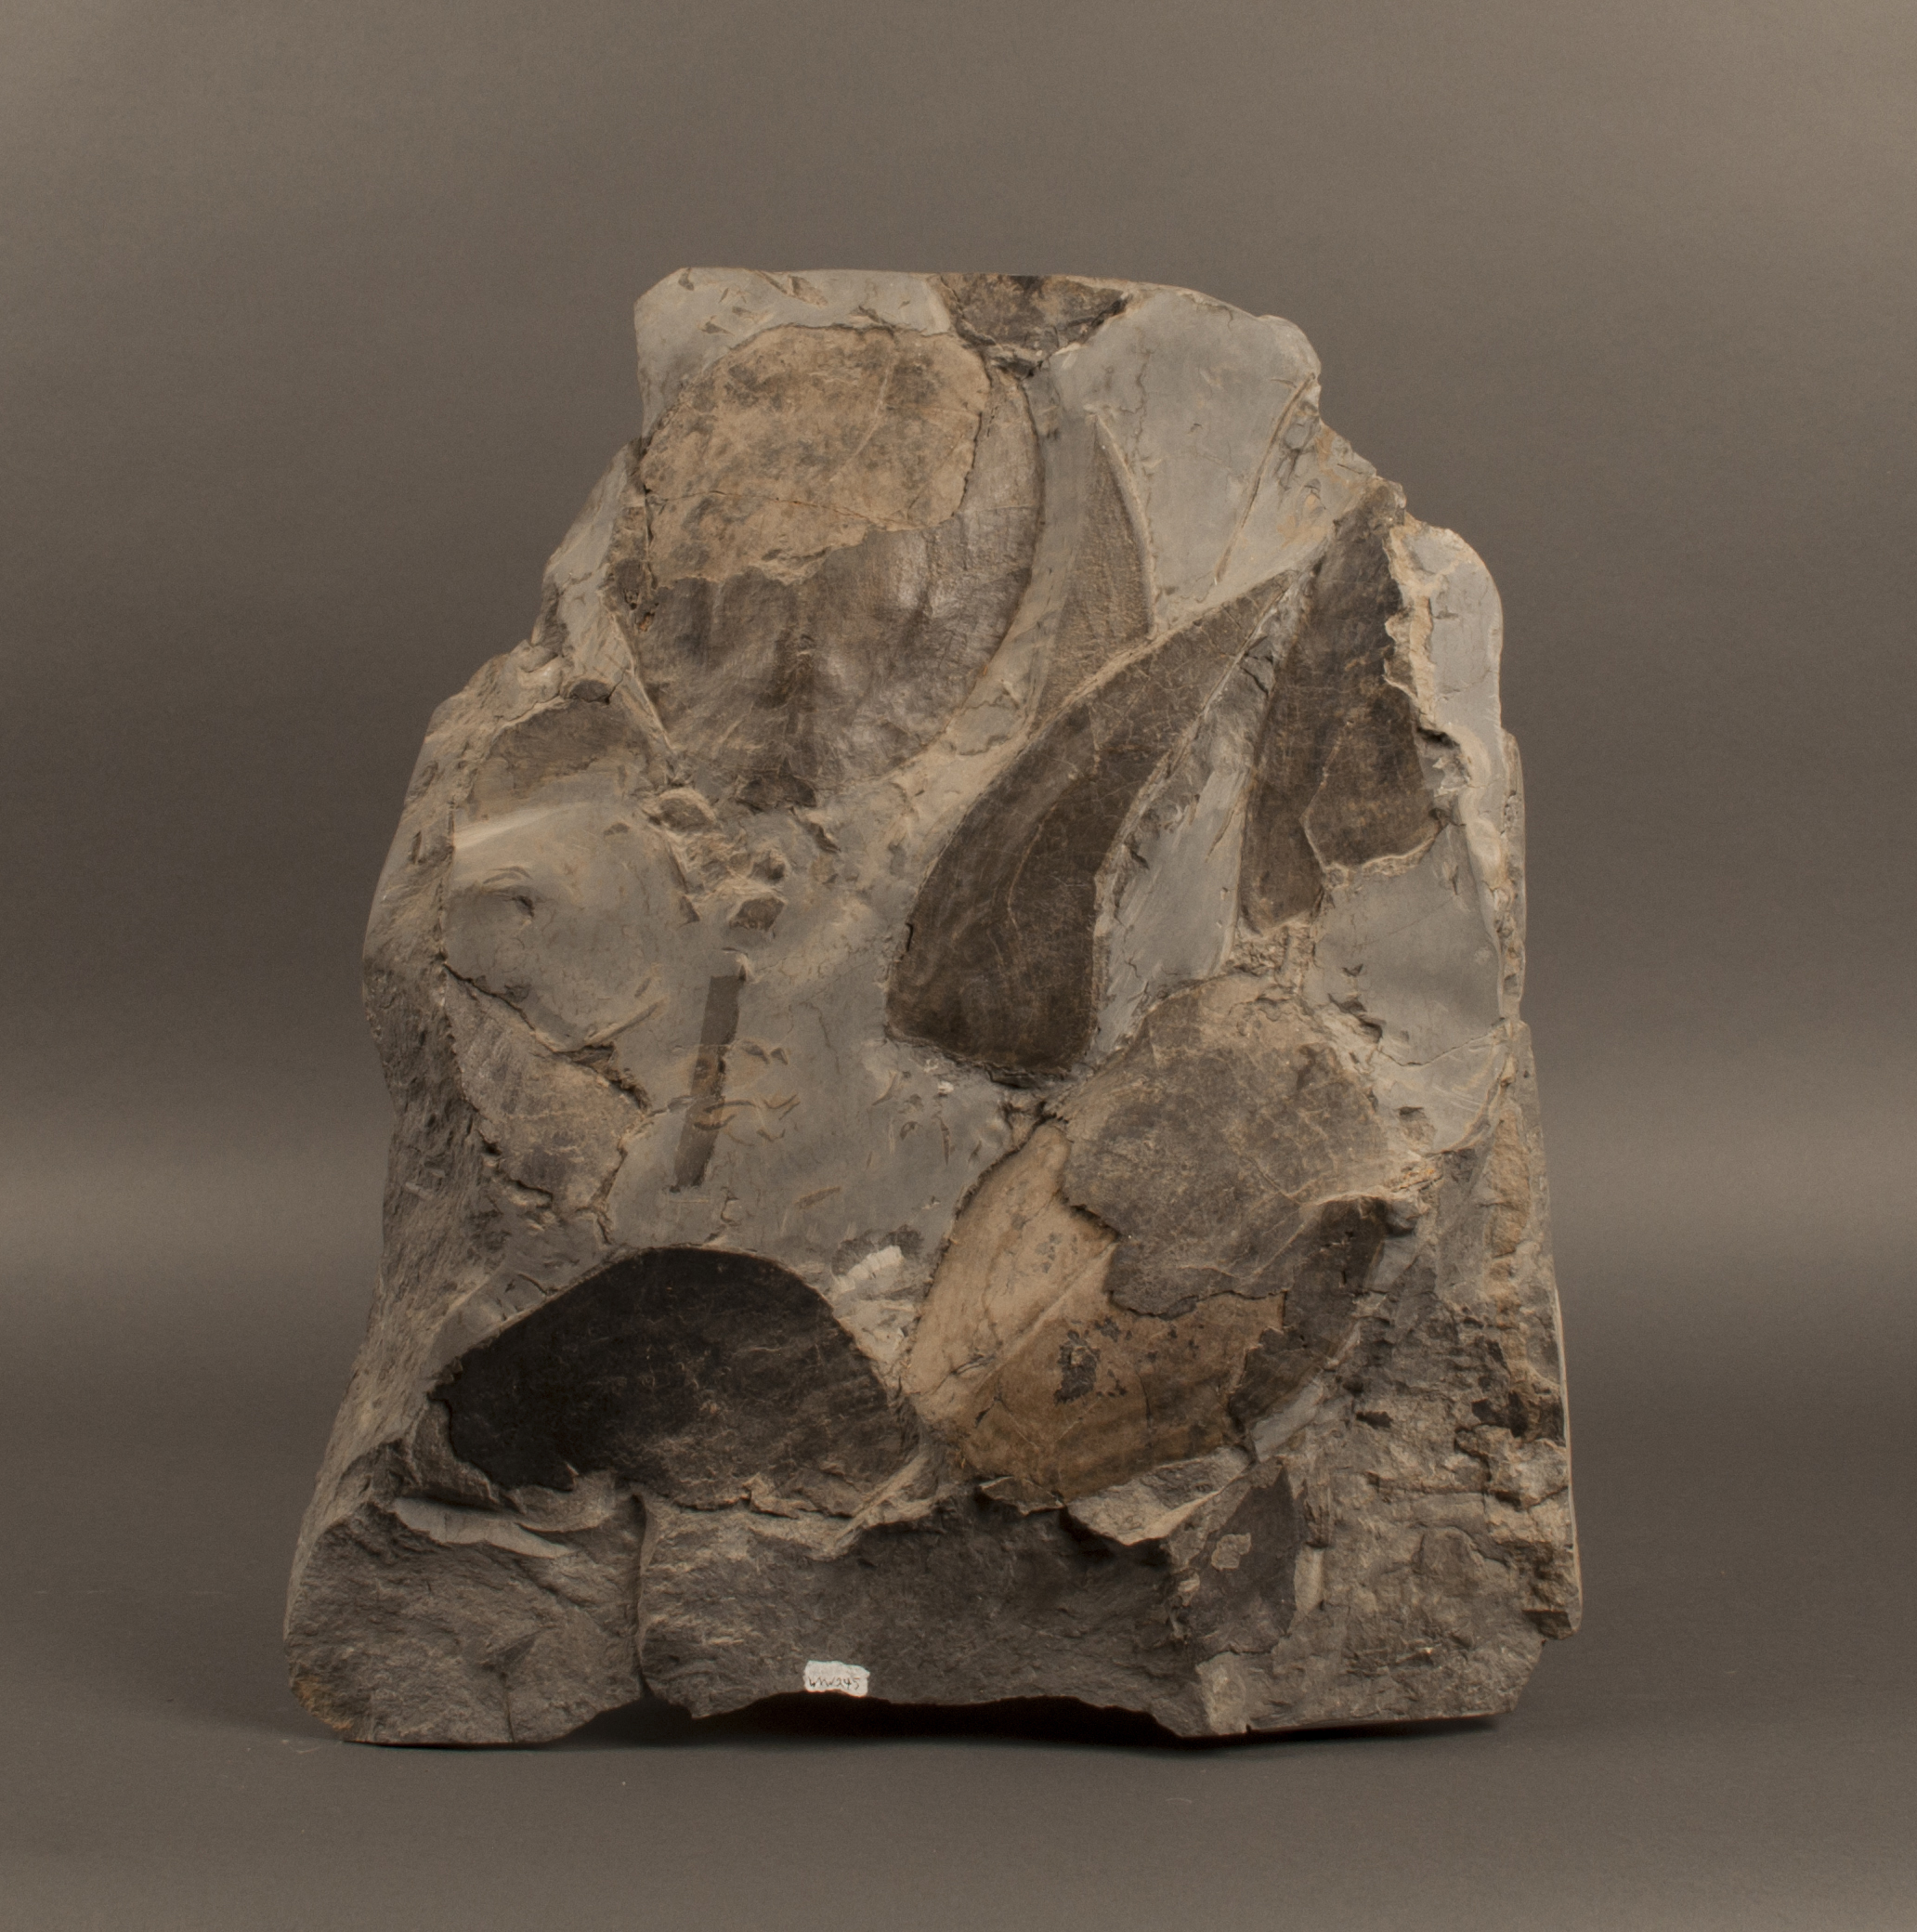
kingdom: Animalia
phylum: Chordata
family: Psammosteidae
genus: Drepanaspis
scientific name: Drepanaspis
